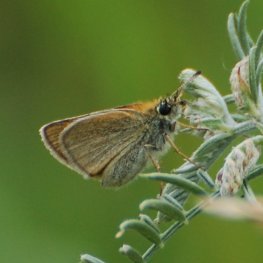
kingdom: Animalia
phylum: Arthropoda
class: Insecta
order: Lepidoptera
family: Hesperiidae
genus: Thymelicus
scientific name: Thymelicus lineola
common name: European Skipper
